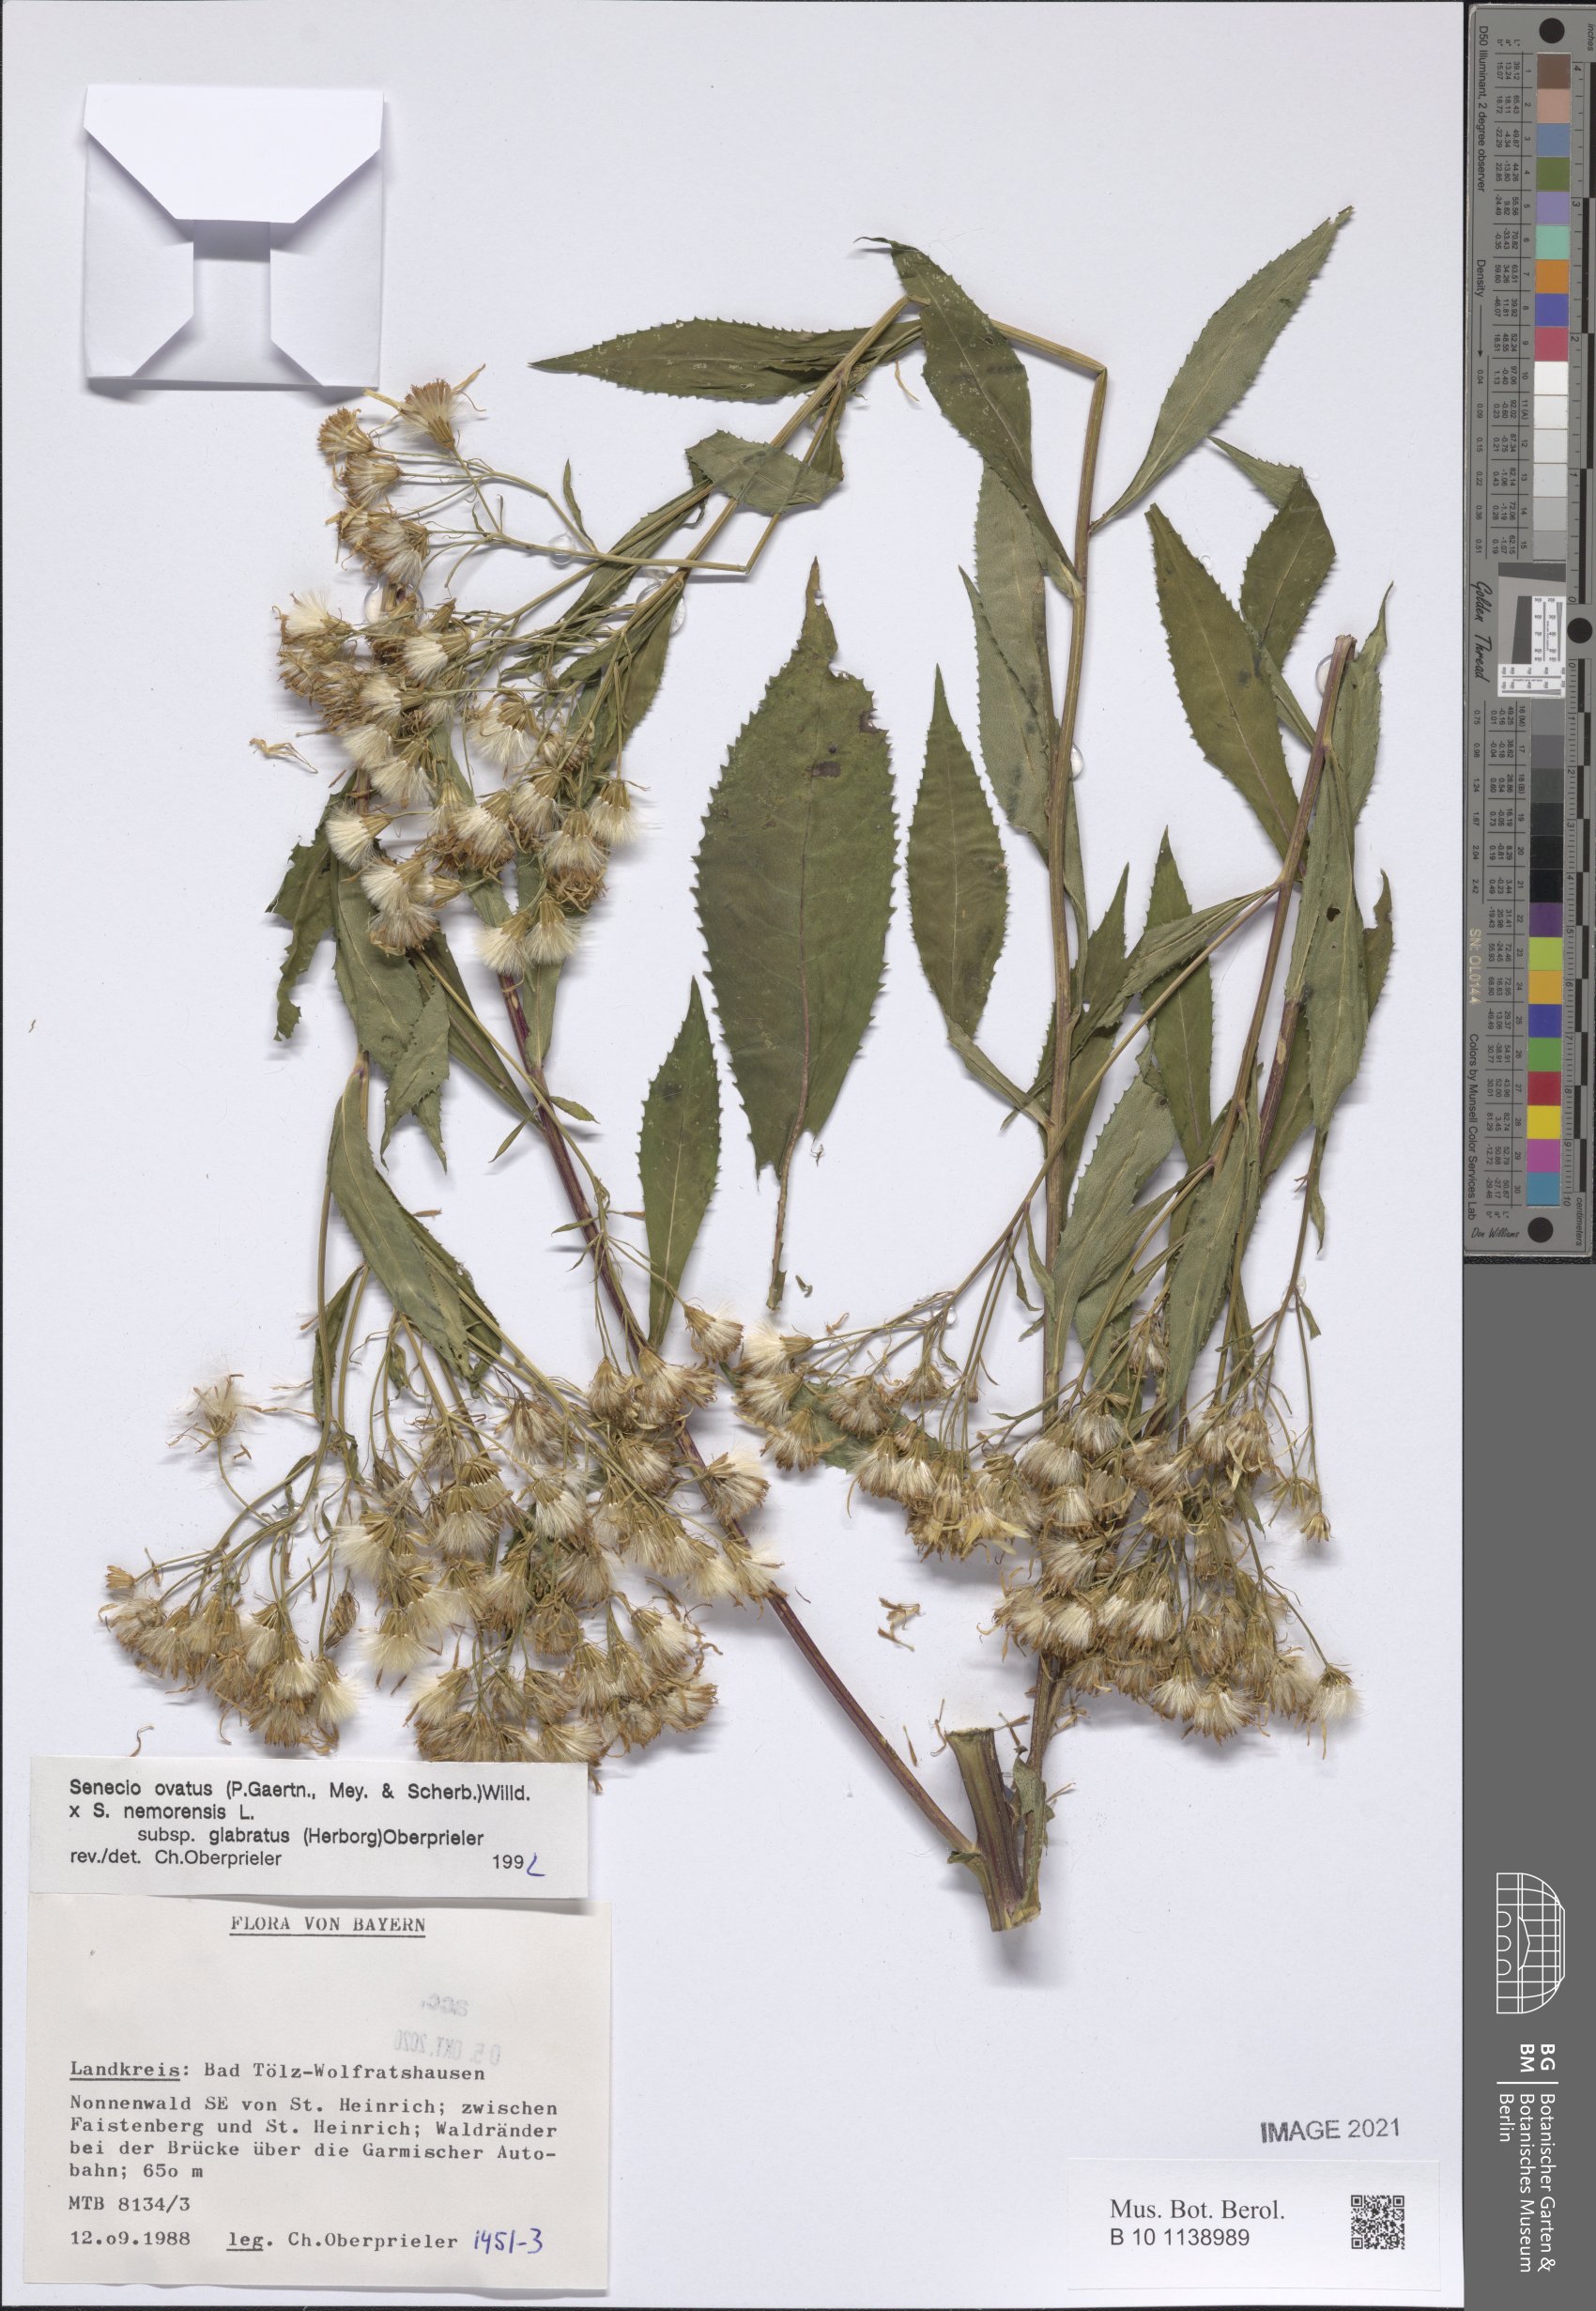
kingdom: Plantae
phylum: Tracheophyta
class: Magnoliopsida
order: Asterales
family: Asteraceae
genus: Senecio
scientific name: Senecio ovatus
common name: Wood ragwort
